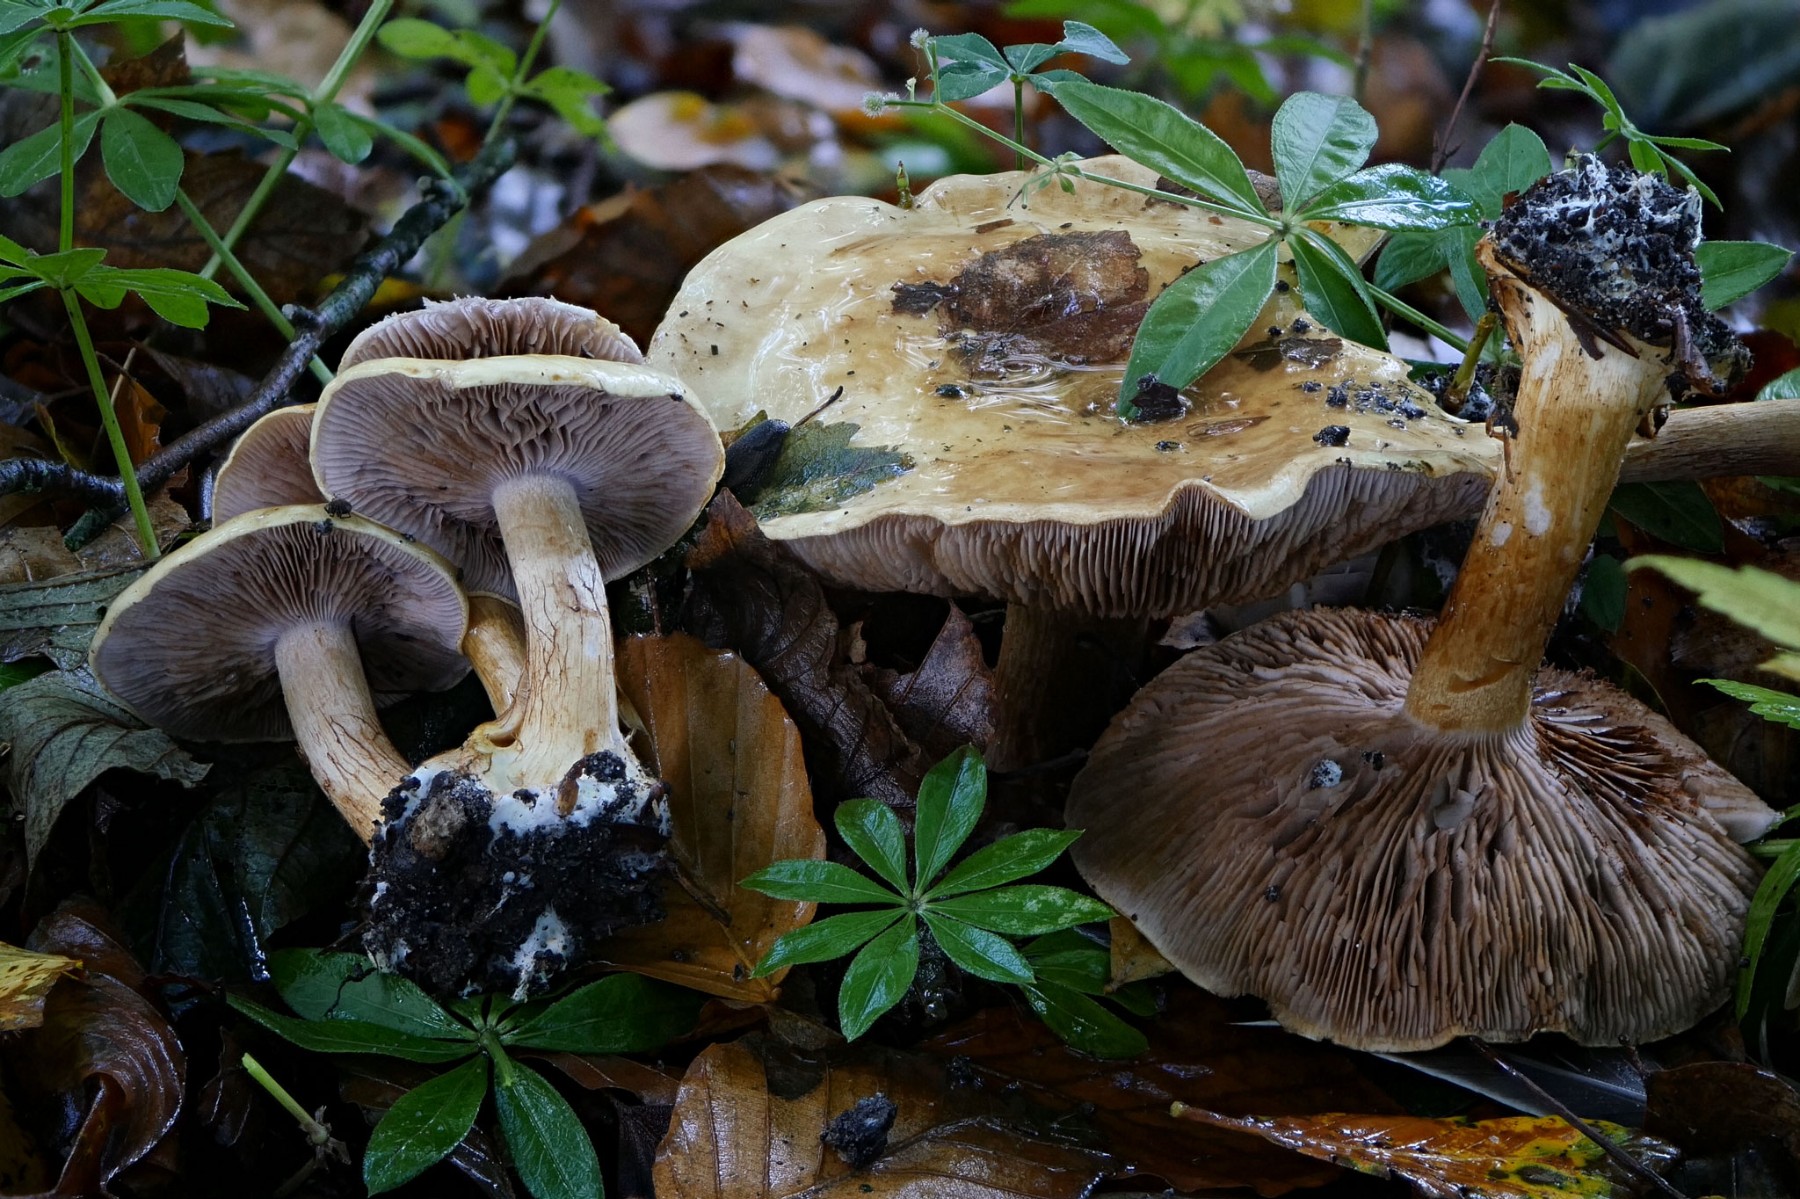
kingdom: Fungi
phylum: Basidiomycota
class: Agaricomycetes
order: Agaricales
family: Cortinariaceae
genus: Calonarius
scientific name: Calonarius
